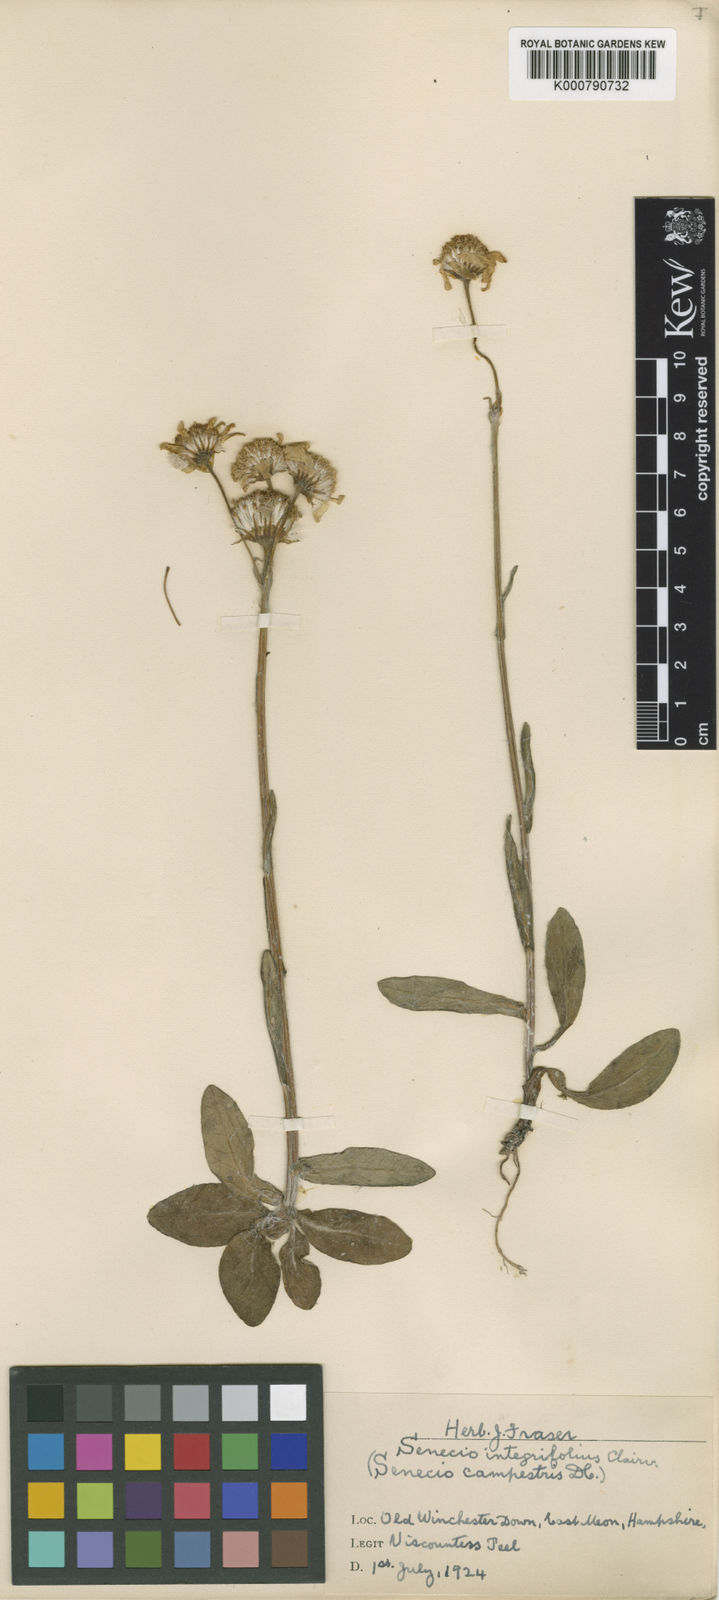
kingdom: Plantae
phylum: Tracheophyta
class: Magnoliopsida
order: Asterales
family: Asteraceae
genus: Tephroseris
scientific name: Tephroseris integrifolia
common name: Field fleawort
